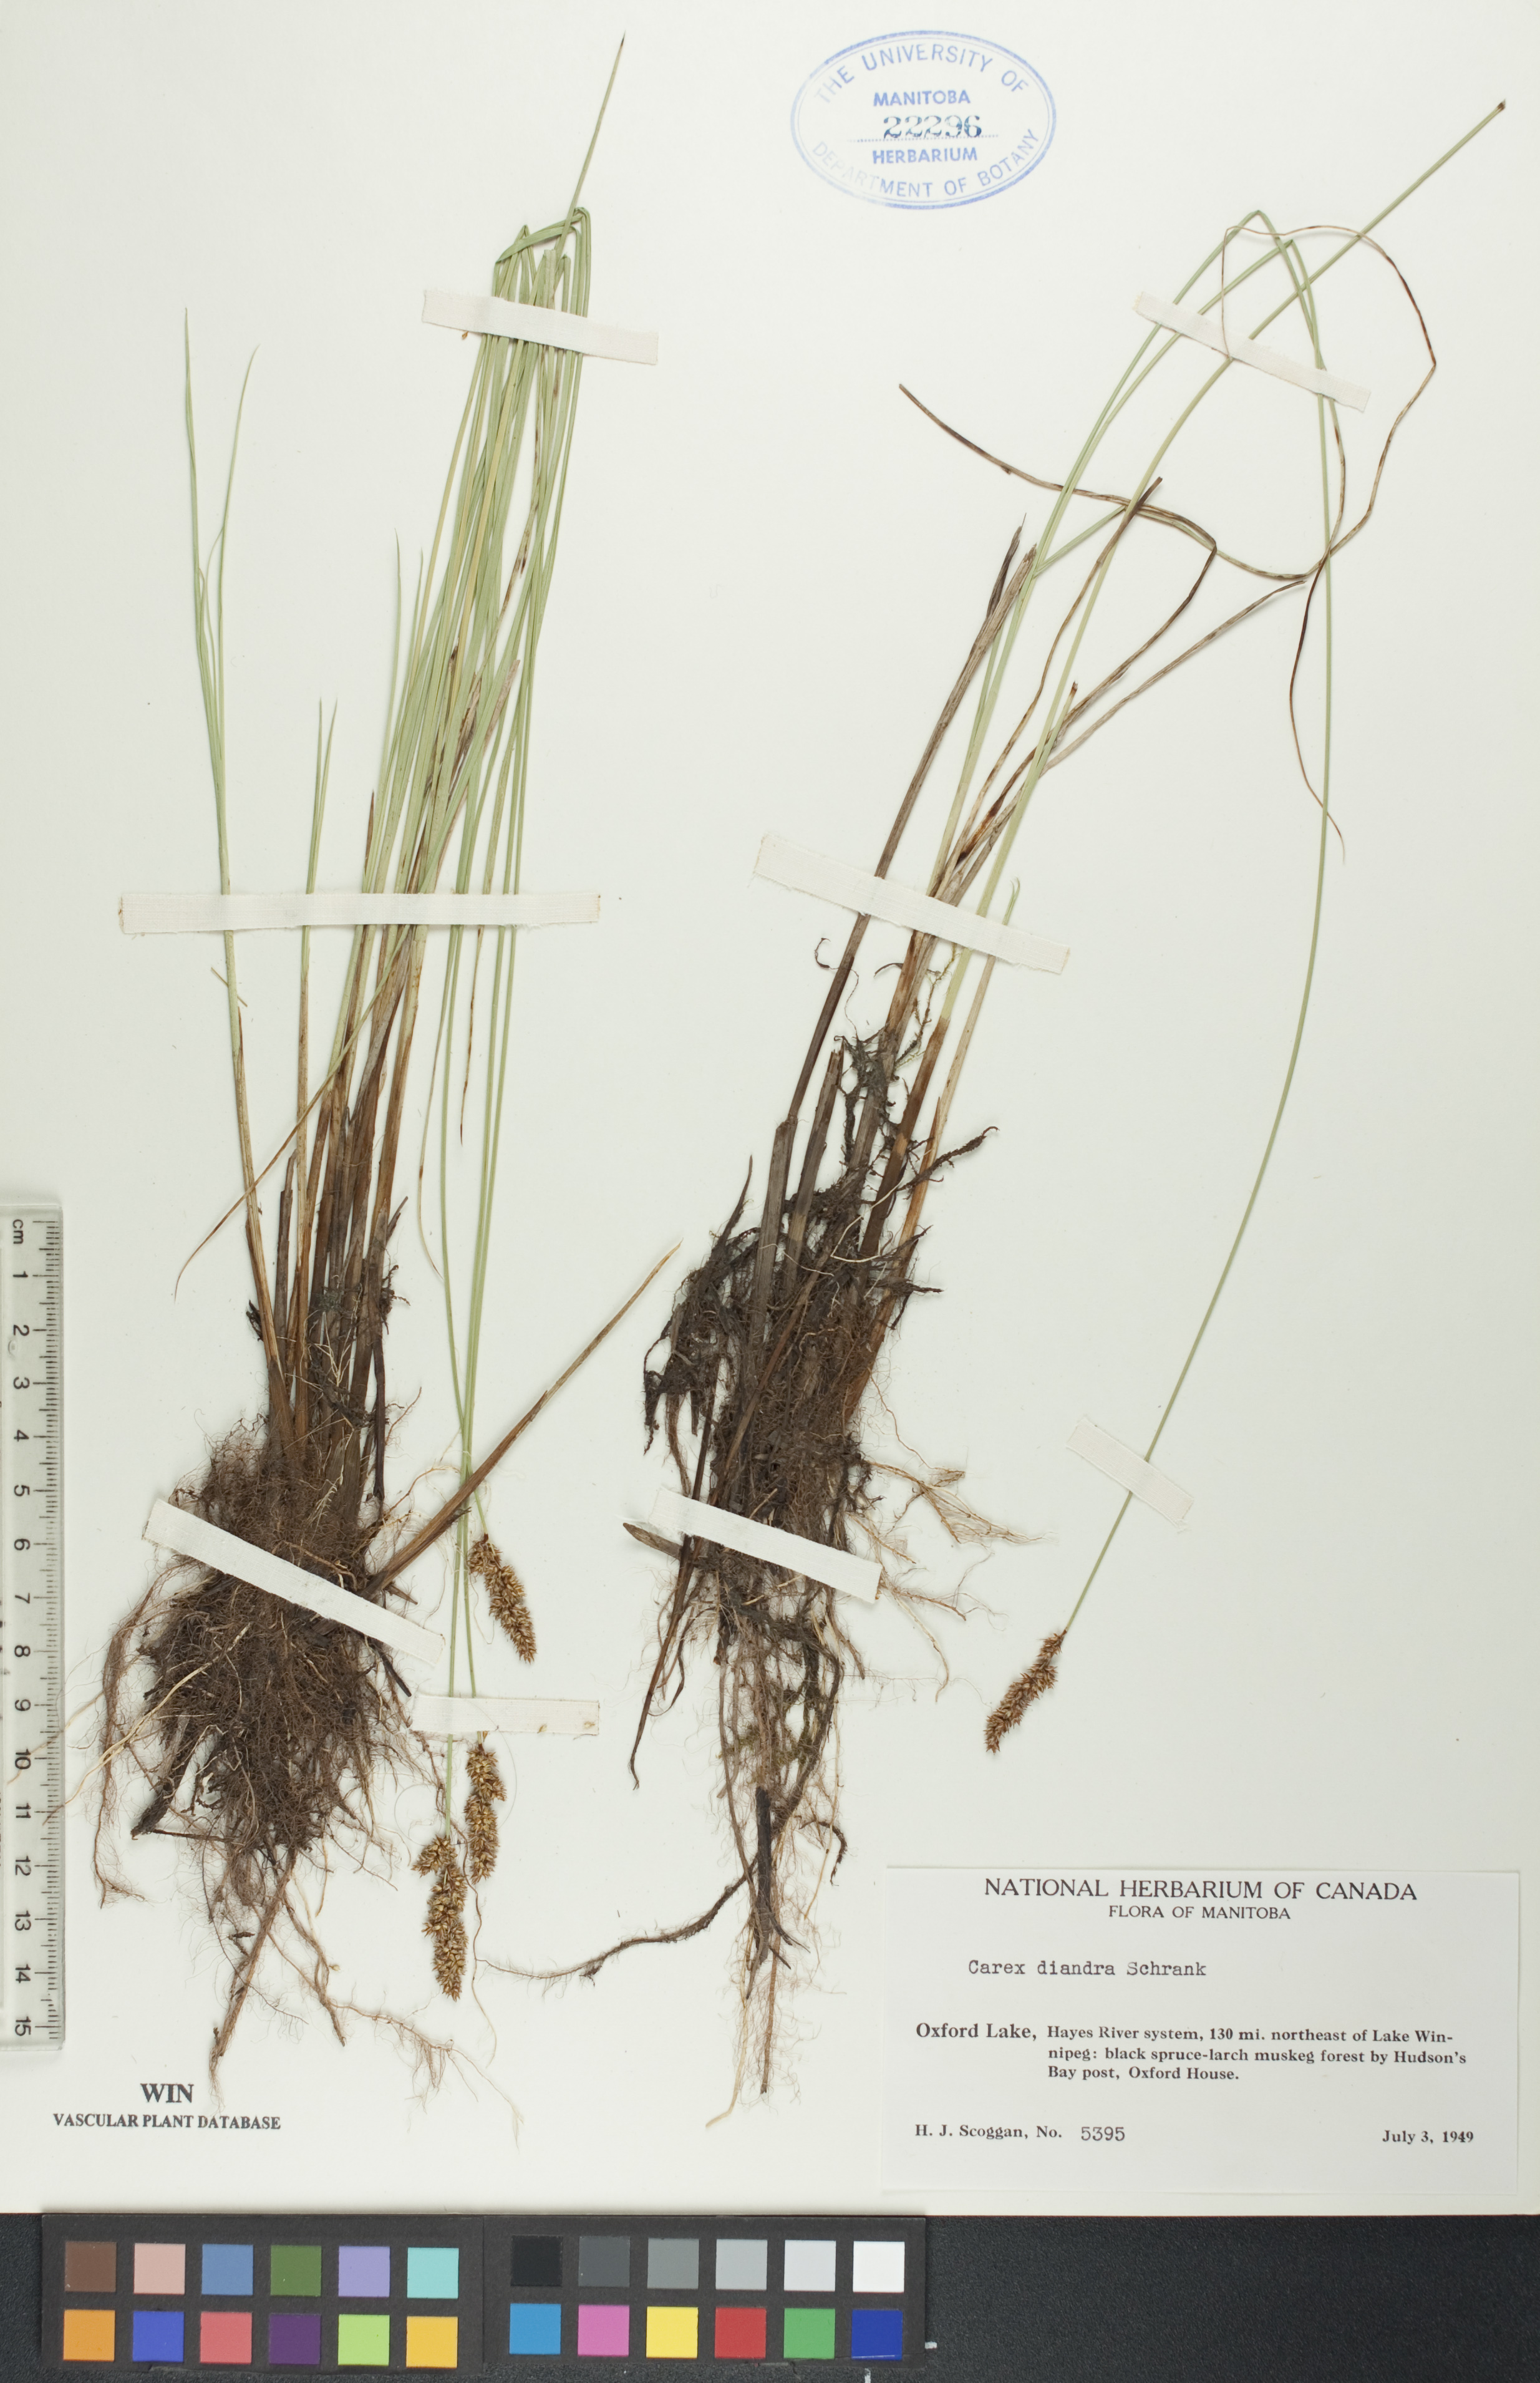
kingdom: Plantae
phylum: Tracheophyta
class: Liliopsida
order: Poales
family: Cyperaceae
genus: Carex
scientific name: Carex diandra
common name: Lesser tussock-sedge
